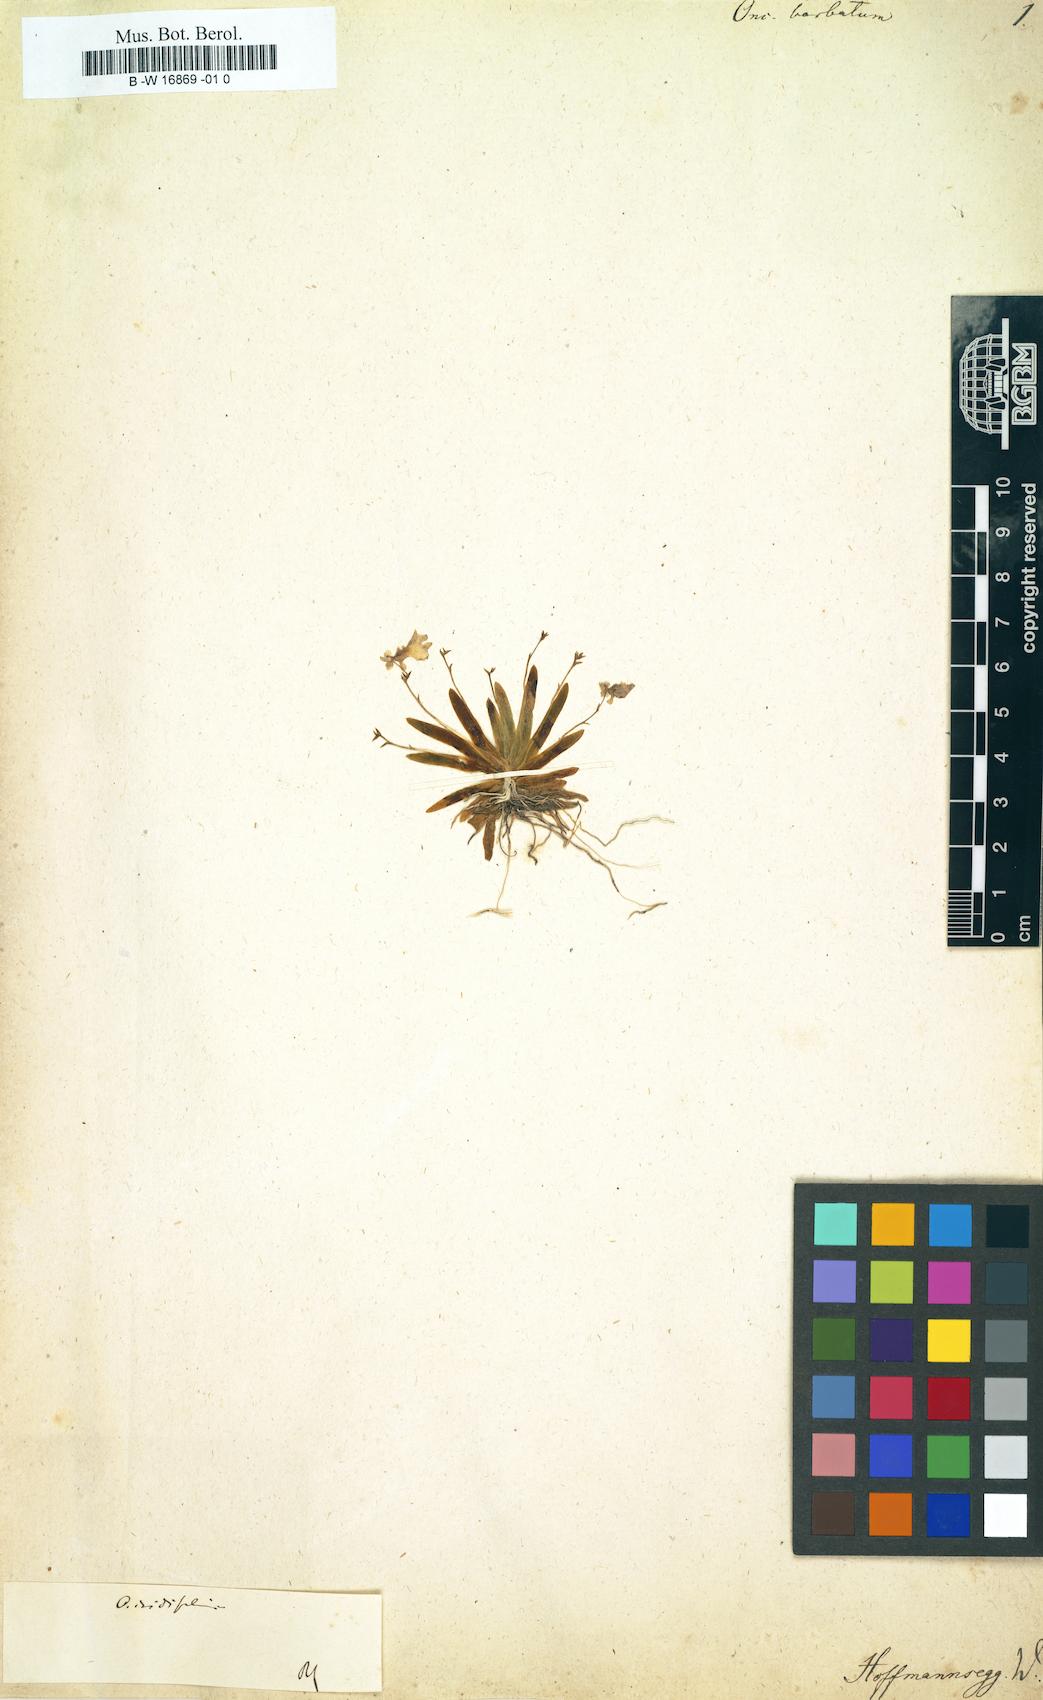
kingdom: Plantae
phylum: Tracheophyta
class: Liliopsida
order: Asparagales
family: Orchidaceae
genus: Gomesa
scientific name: Gomesa ciliata
